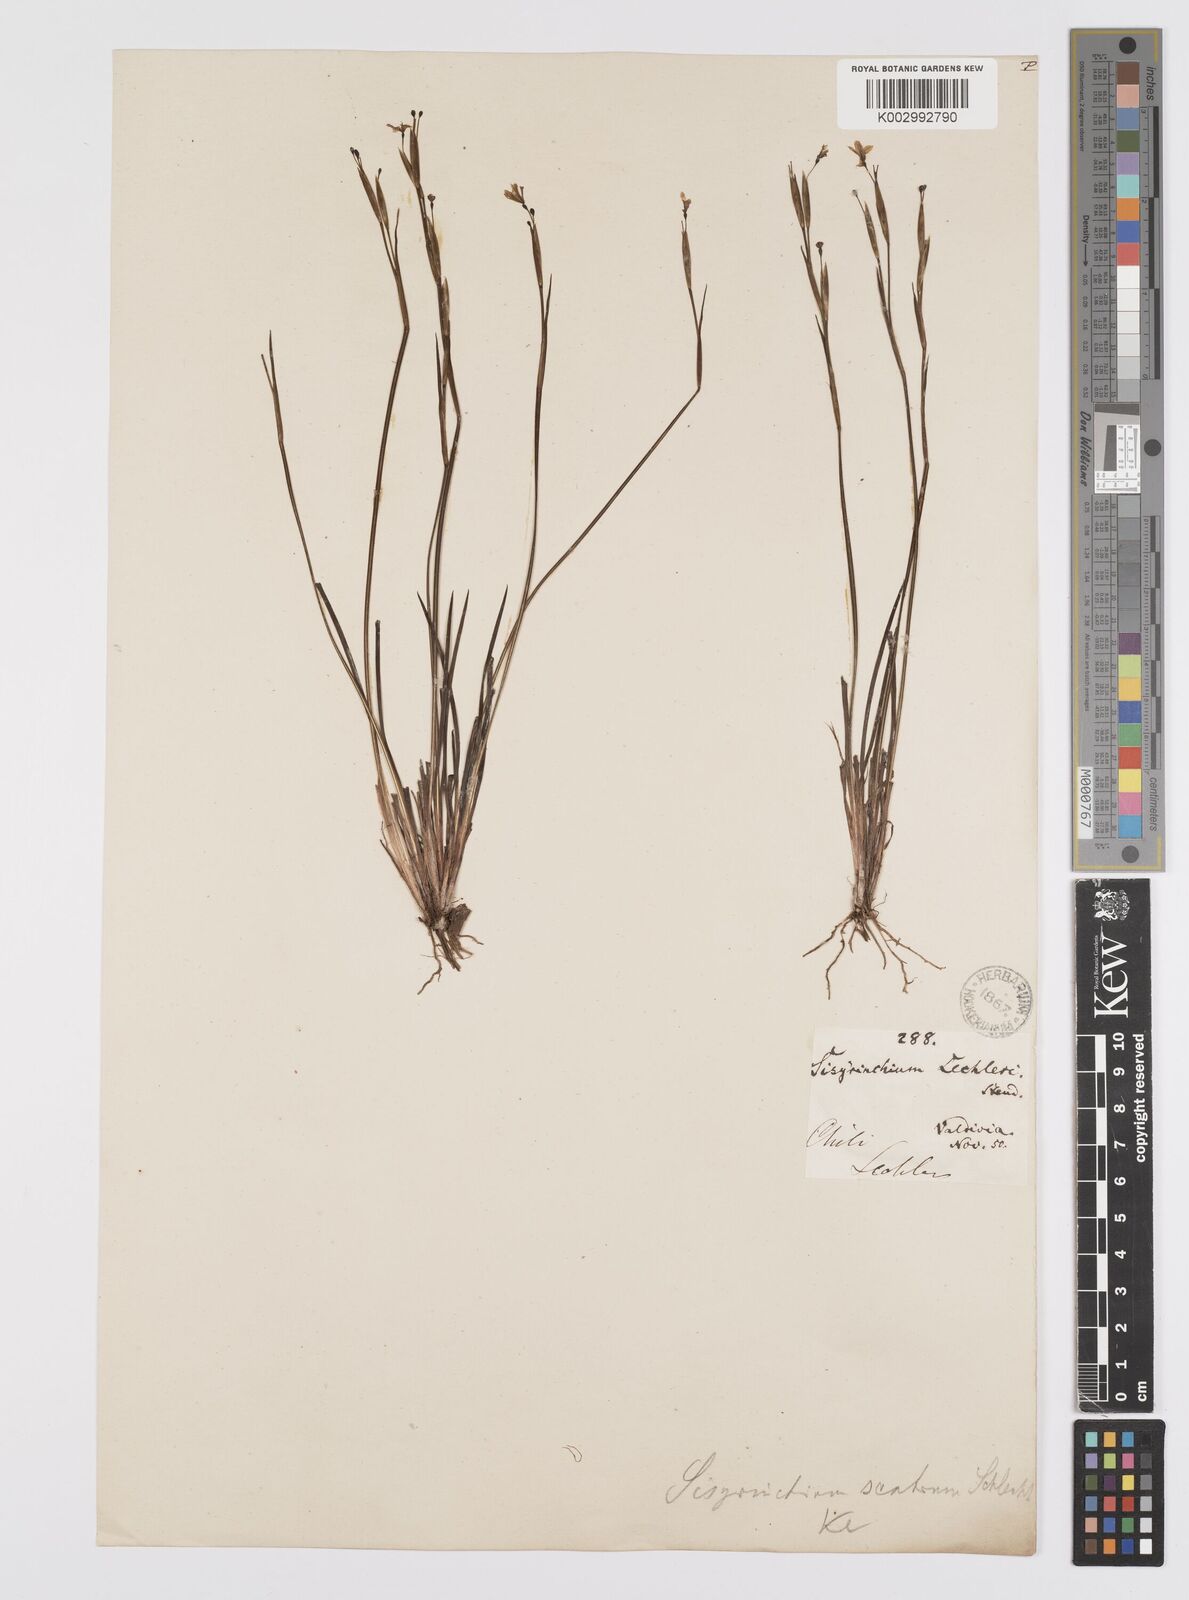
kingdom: Plantae
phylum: Tracheophyta
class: Liliopsida
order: Asparagales
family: Iridaceae
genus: Sisyrinchium
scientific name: Sisyrinchium scabrum
